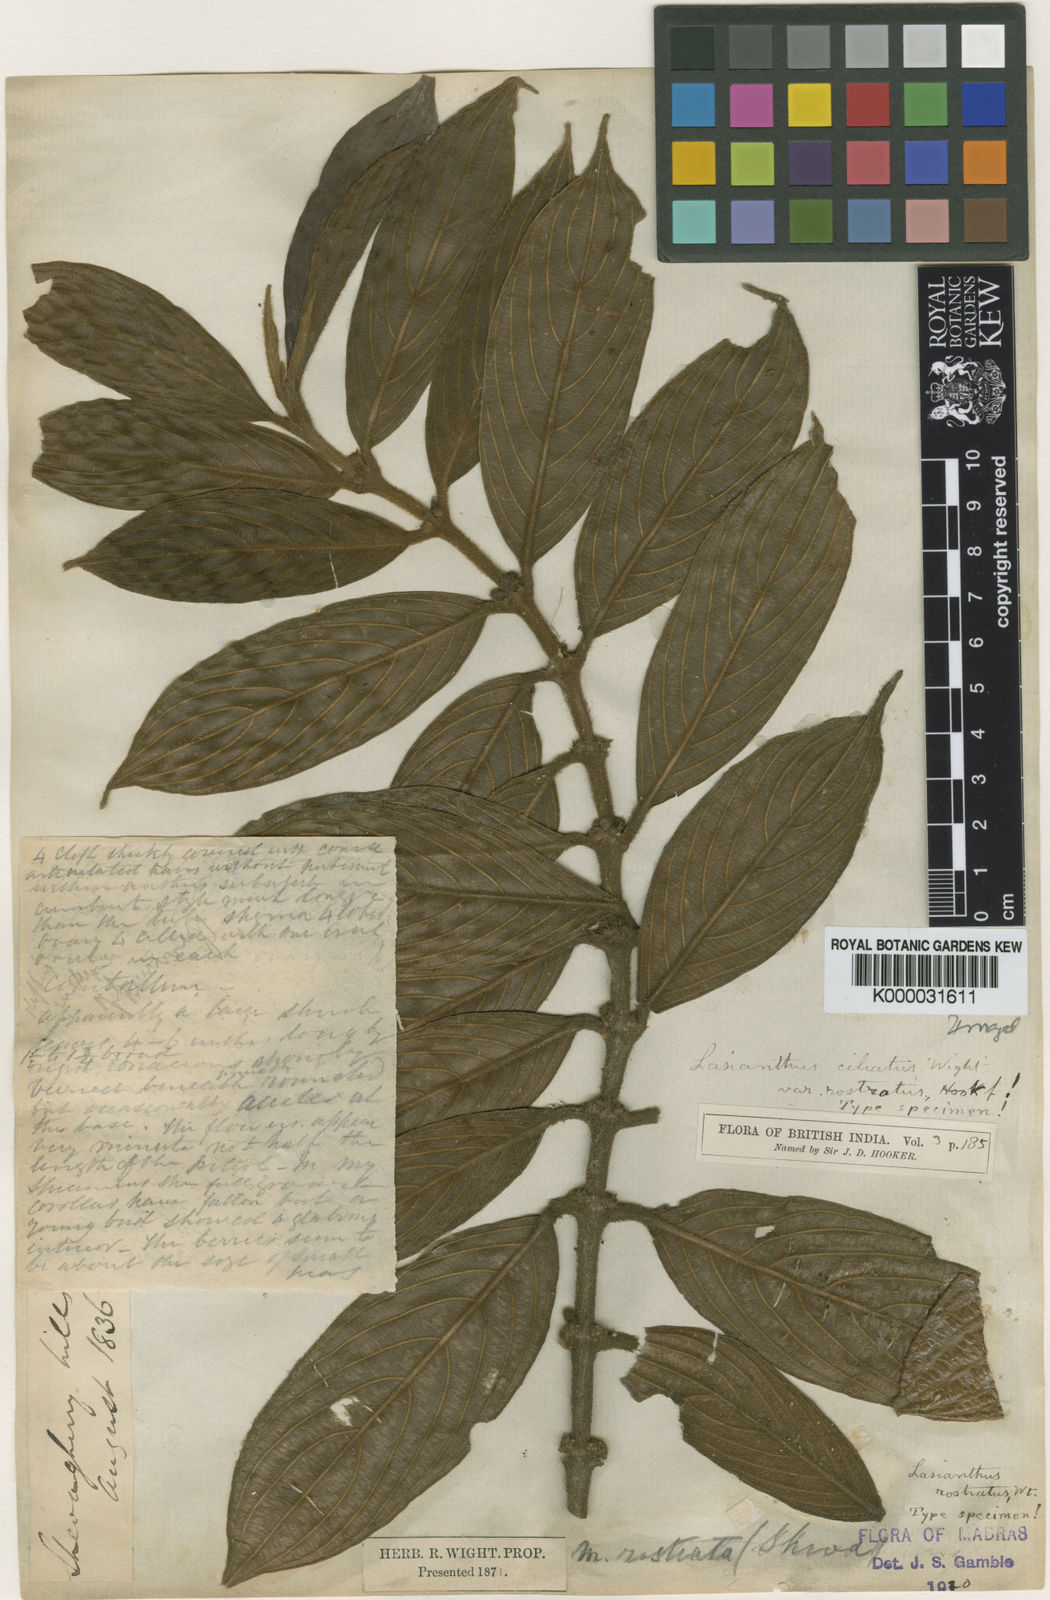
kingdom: Plantae
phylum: Tracheophyta
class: Magnoliopsida
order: Gentianales
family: Rubiaceae
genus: Lasianthus
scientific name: Lasianthus ciliatus
